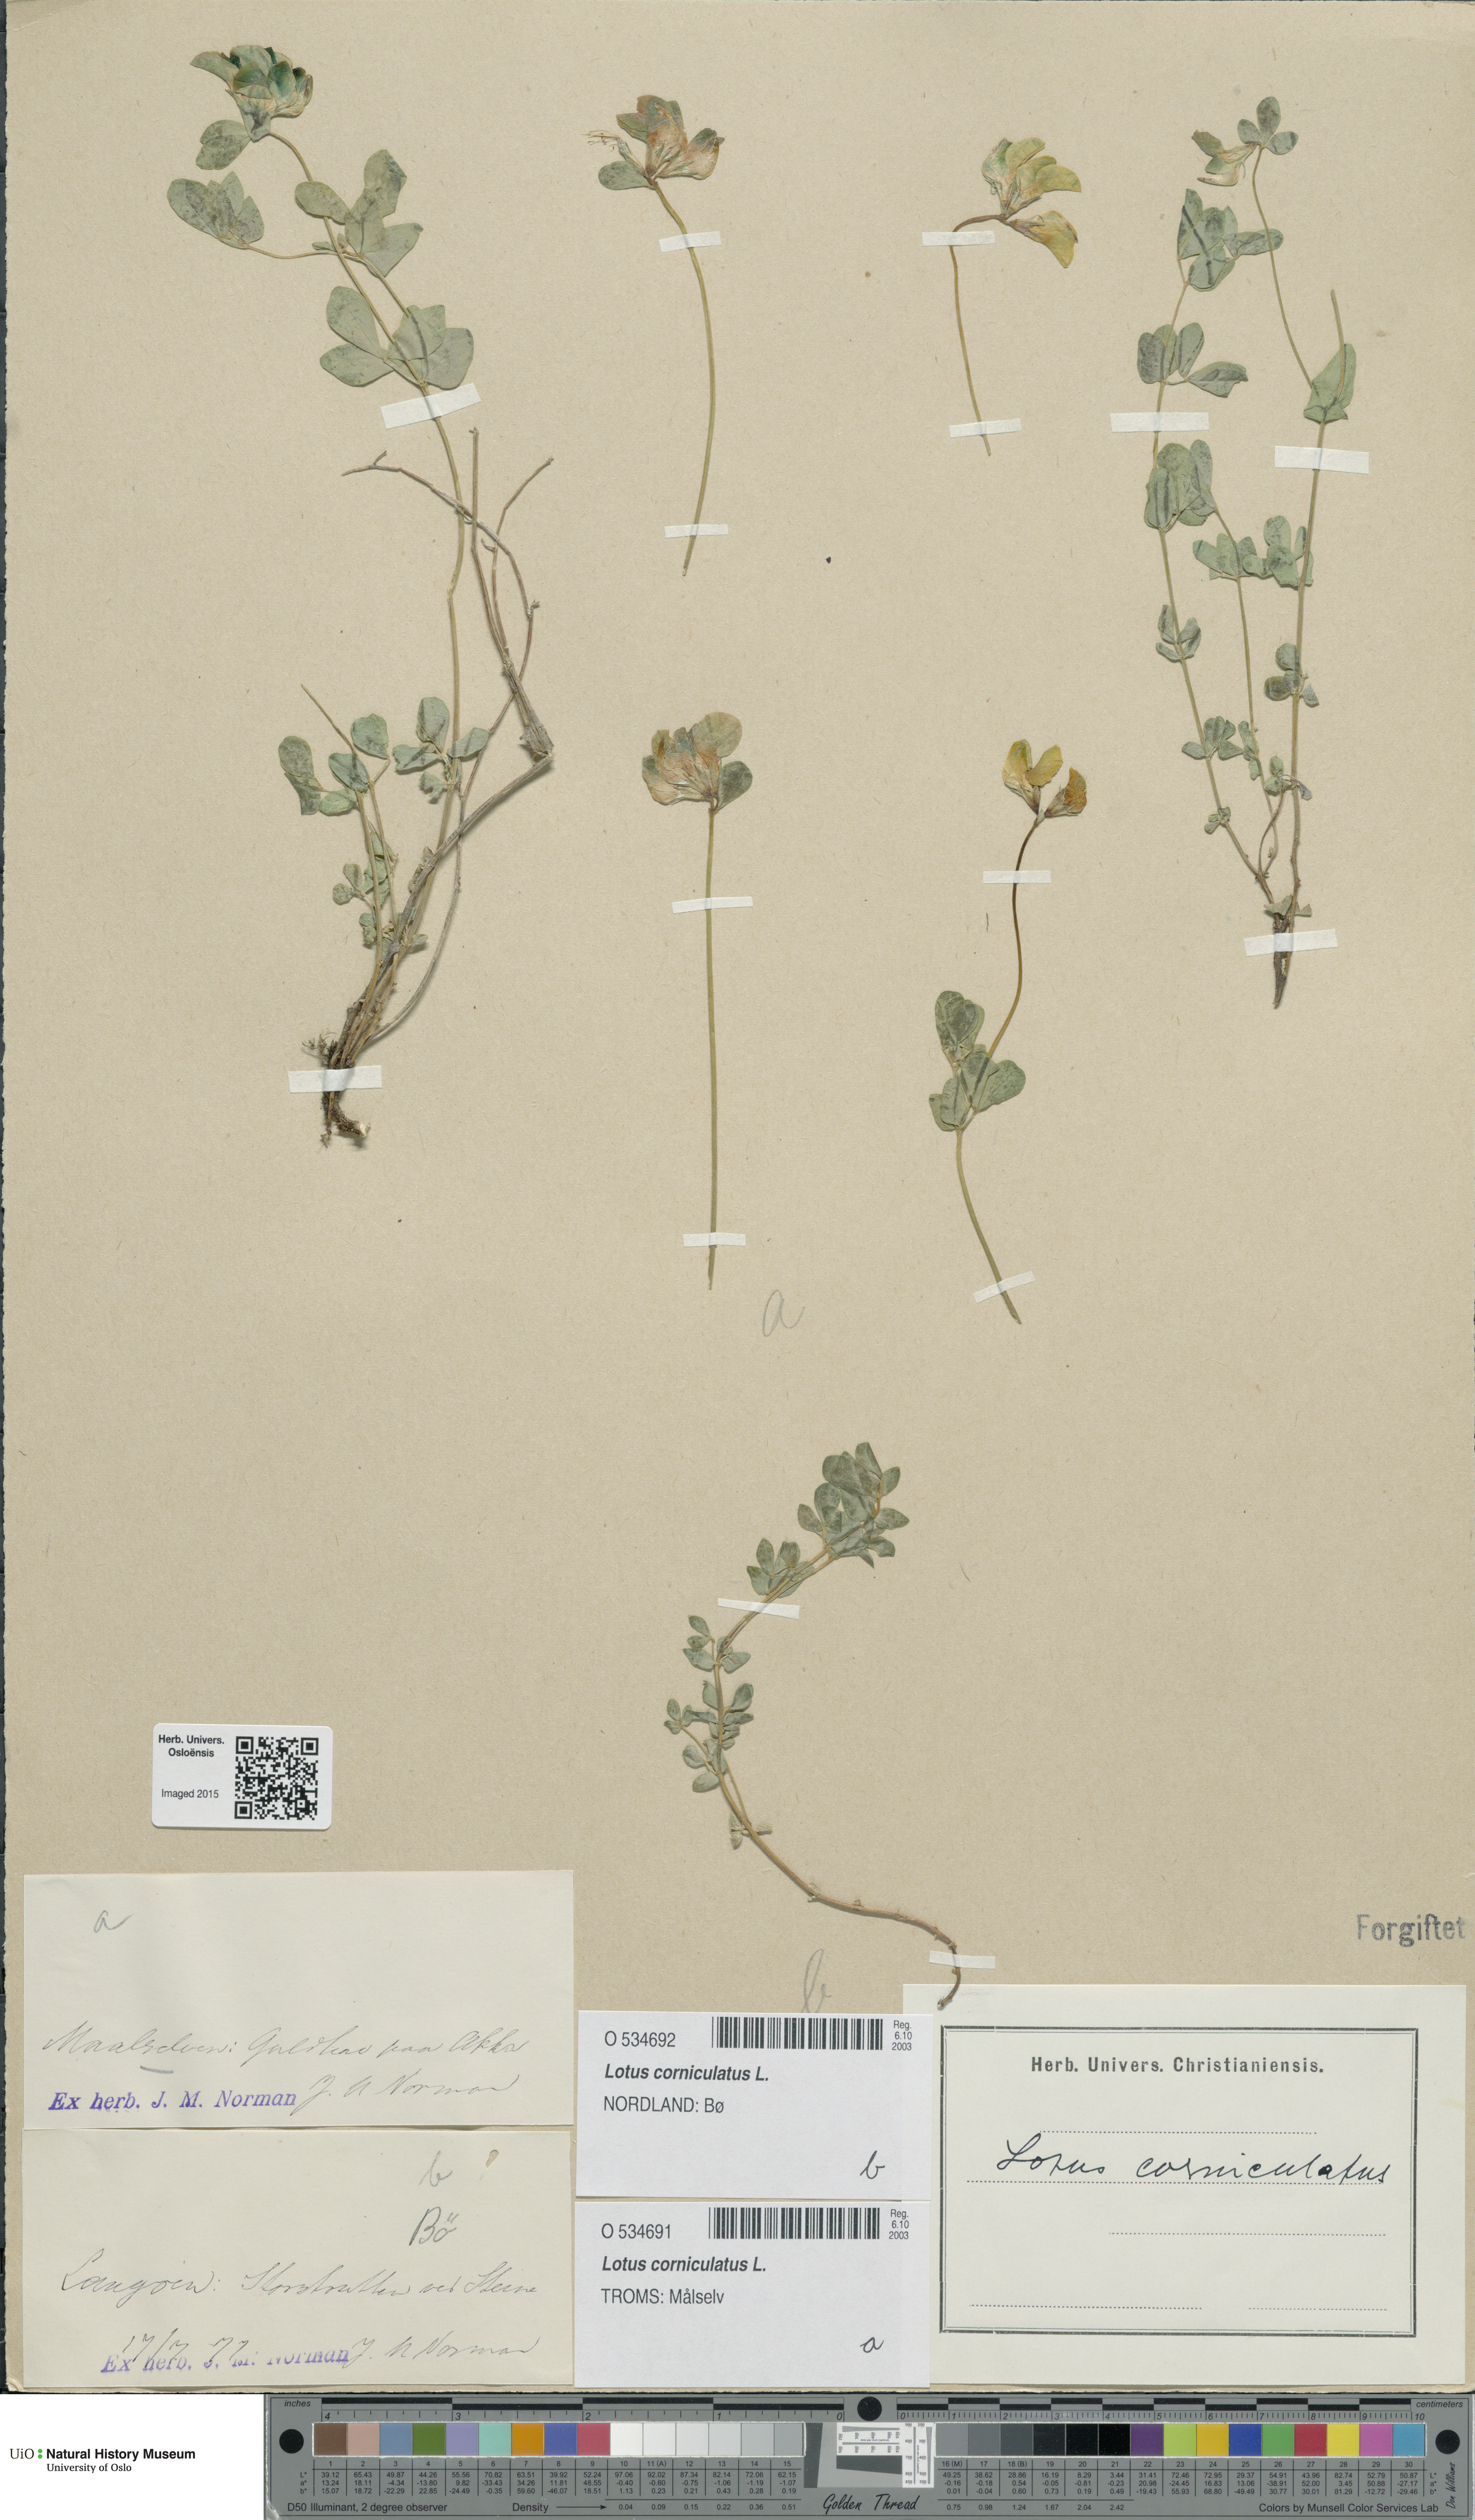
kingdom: Plantae
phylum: Tracheophyta
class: Magnoliopsida
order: Fabales
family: Fabaceae
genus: Lotus
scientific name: Lotus corniculatus
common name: Common bird's-foot-trefoil
